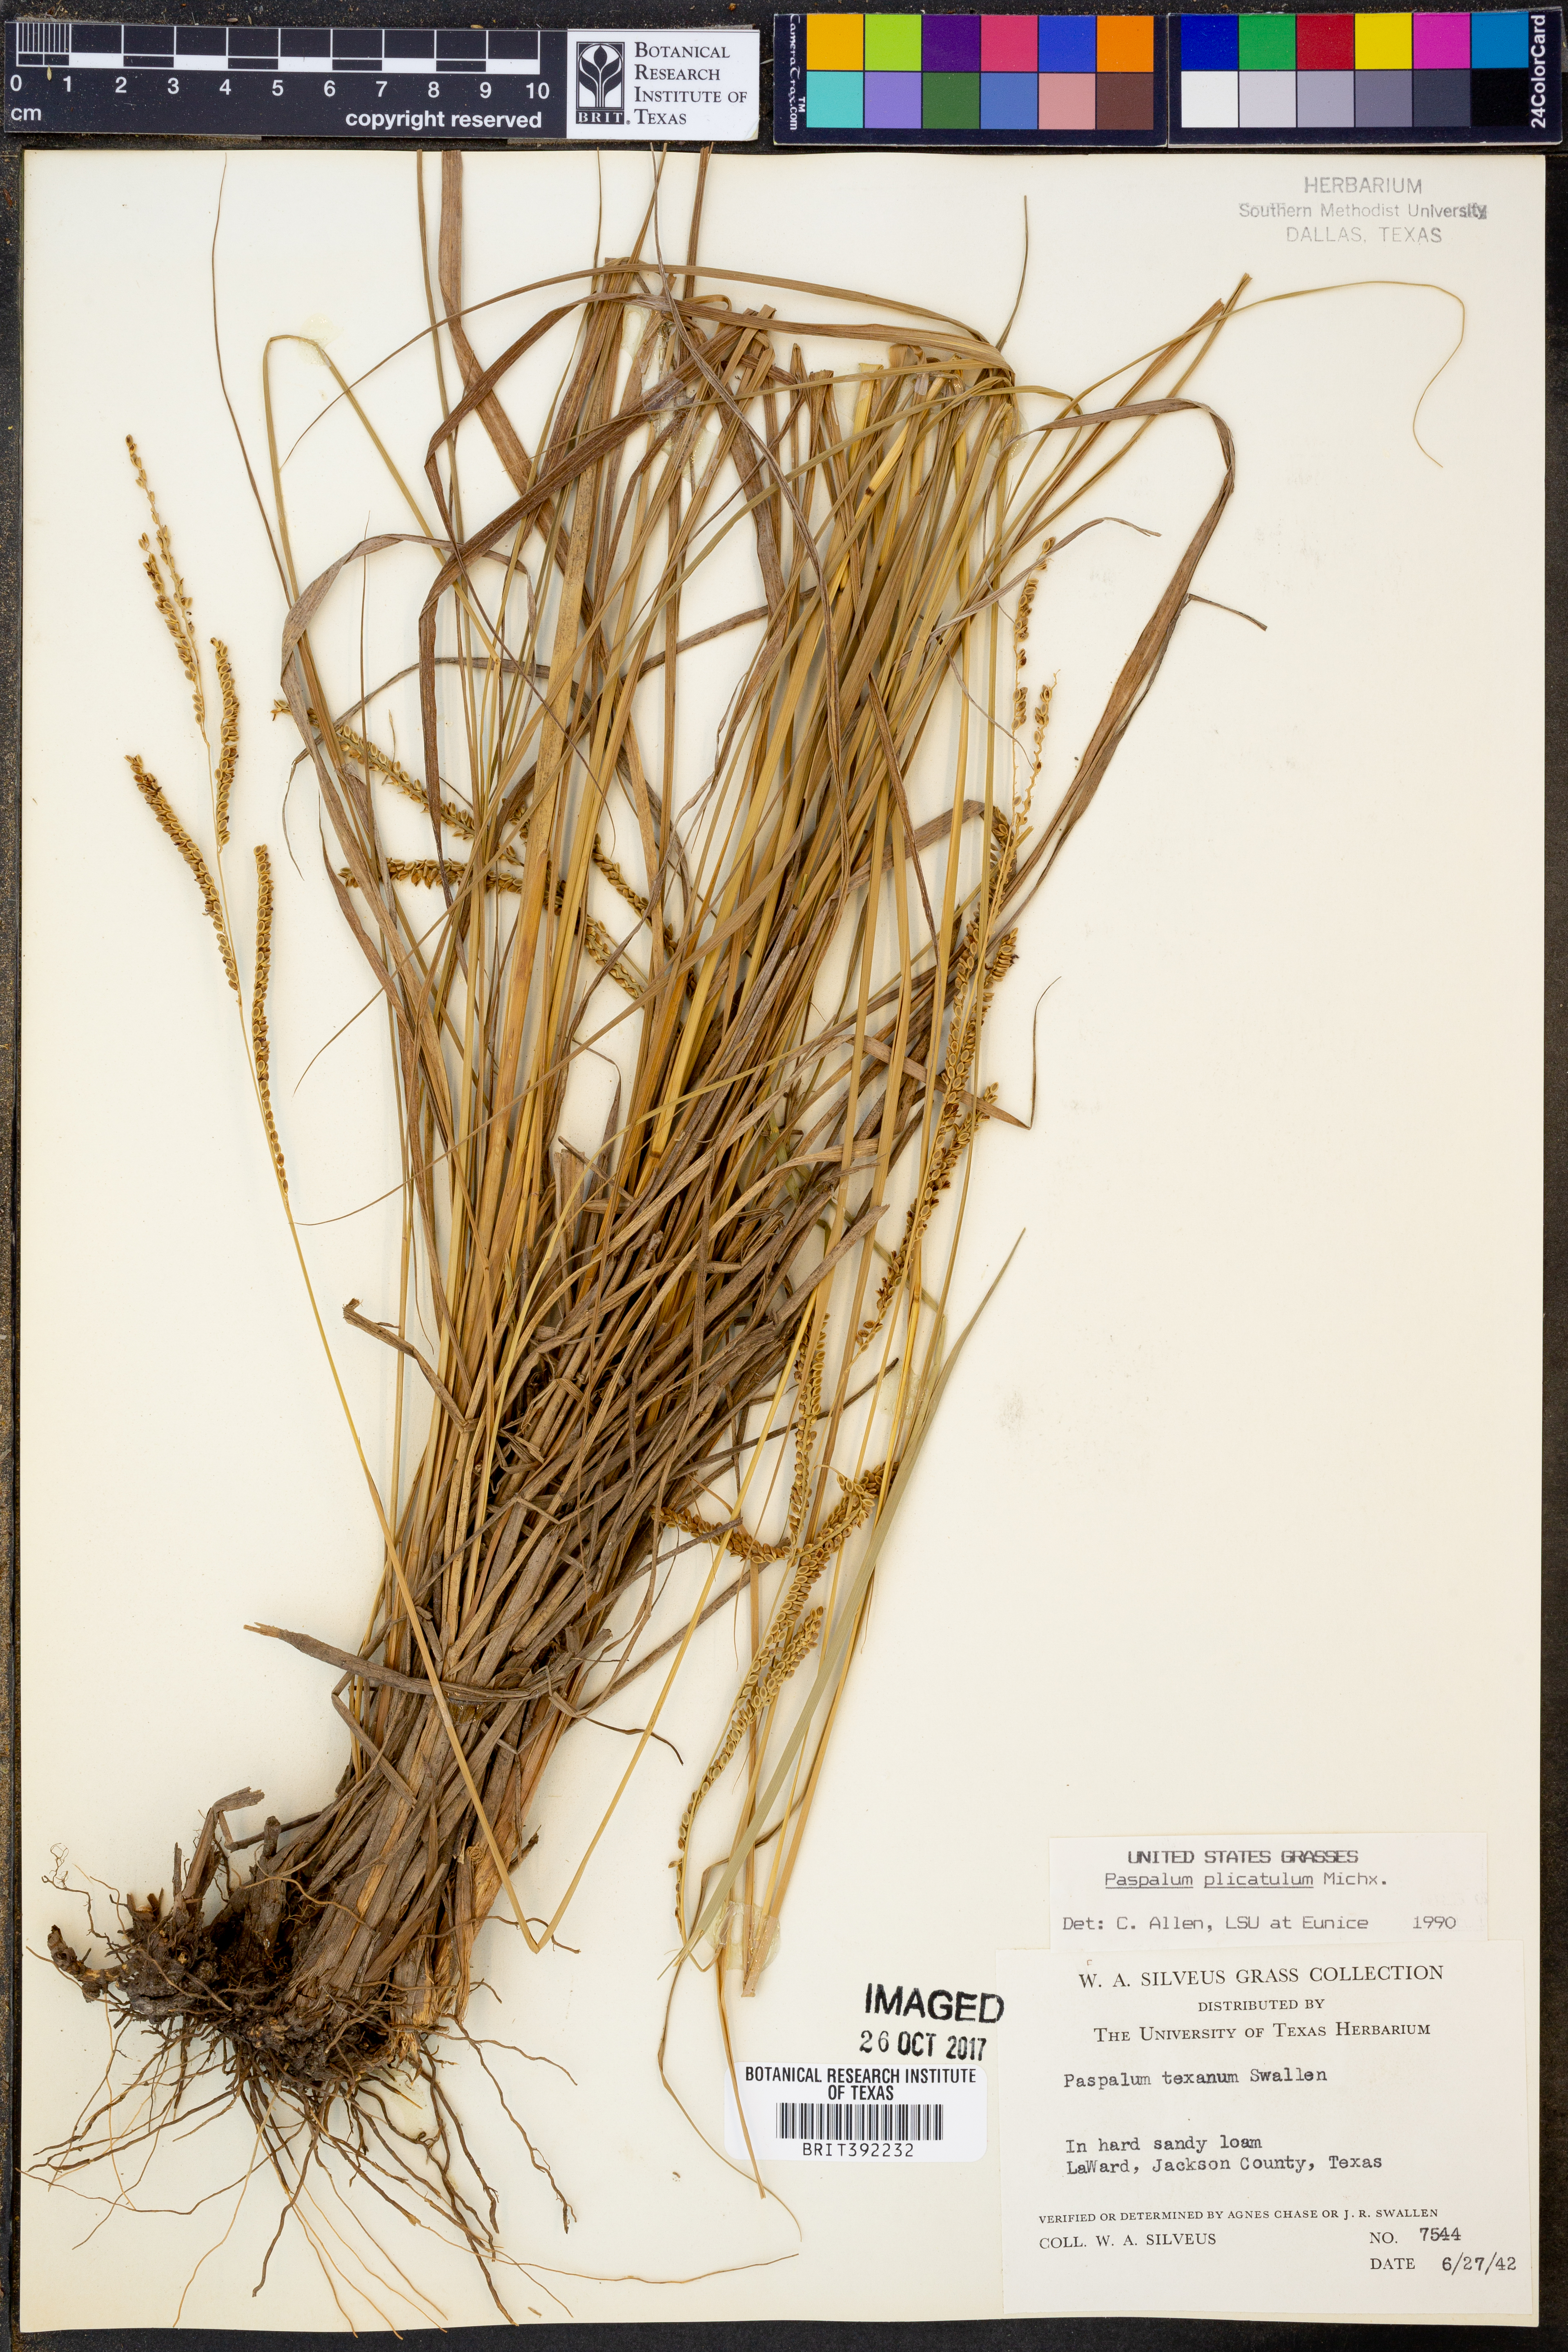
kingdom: Plantae
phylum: Tracheophyta
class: Liliopsida
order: Poales
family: Poaceae
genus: Paspalum
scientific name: Paspalum plicatulum
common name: Top paspalum
